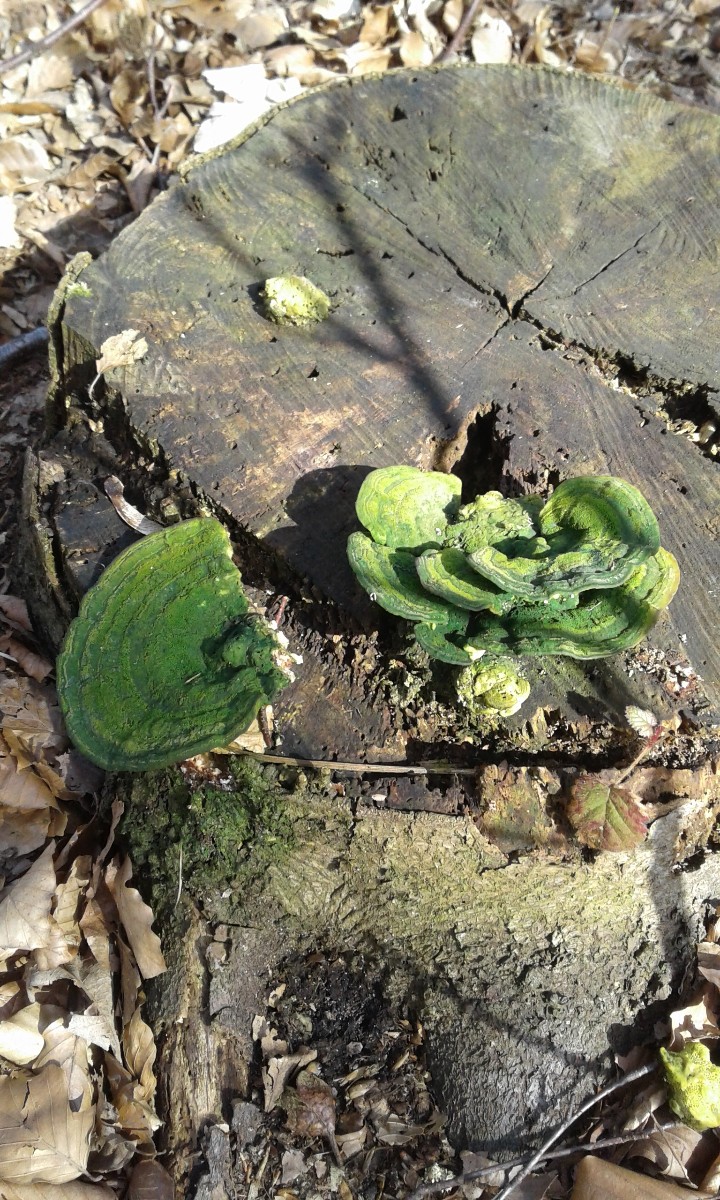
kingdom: Fungi
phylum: Basidiomycota
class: Agaricomycetes
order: Polyporales
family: Polyporaceae
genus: Trametes
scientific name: Trametes gibbosa
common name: puklet læderporesvamp
